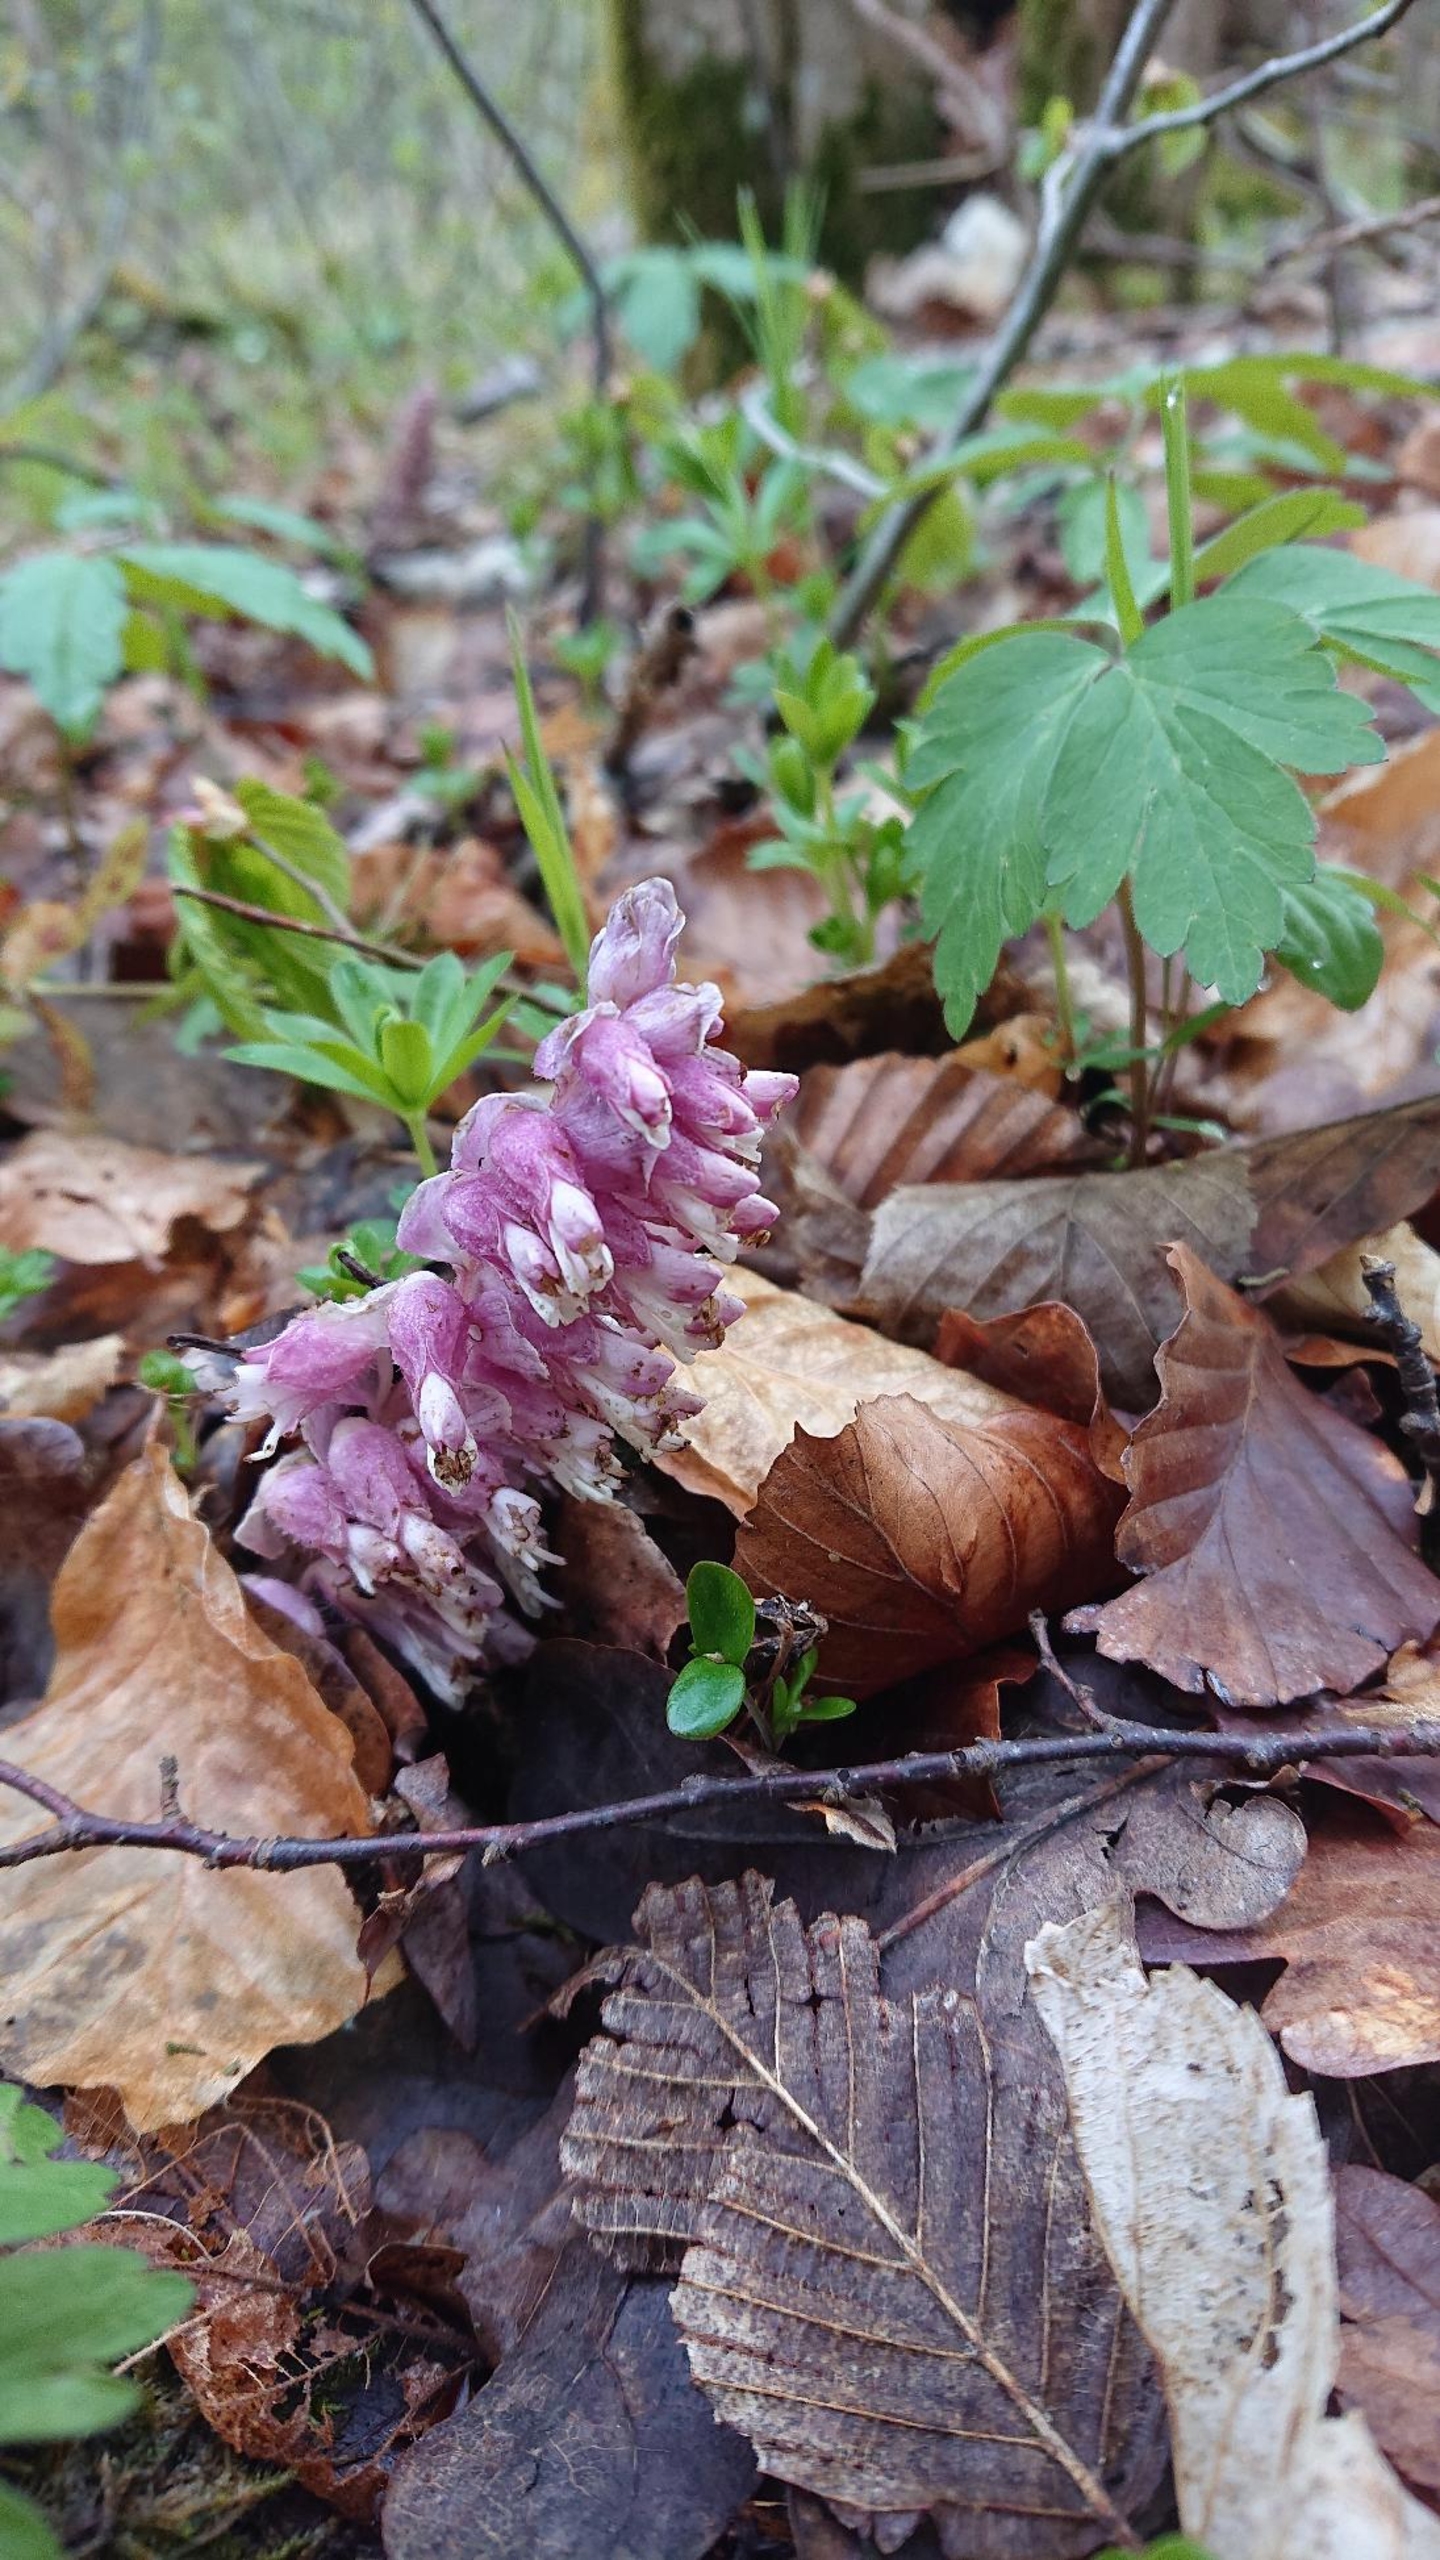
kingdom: Plantae
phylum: Tracheophyta
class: Magnoliopsida
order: Lamiales
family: Orobanchaceae
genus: Lathraea
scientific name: Lathraea squamaria
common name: Skælrod
